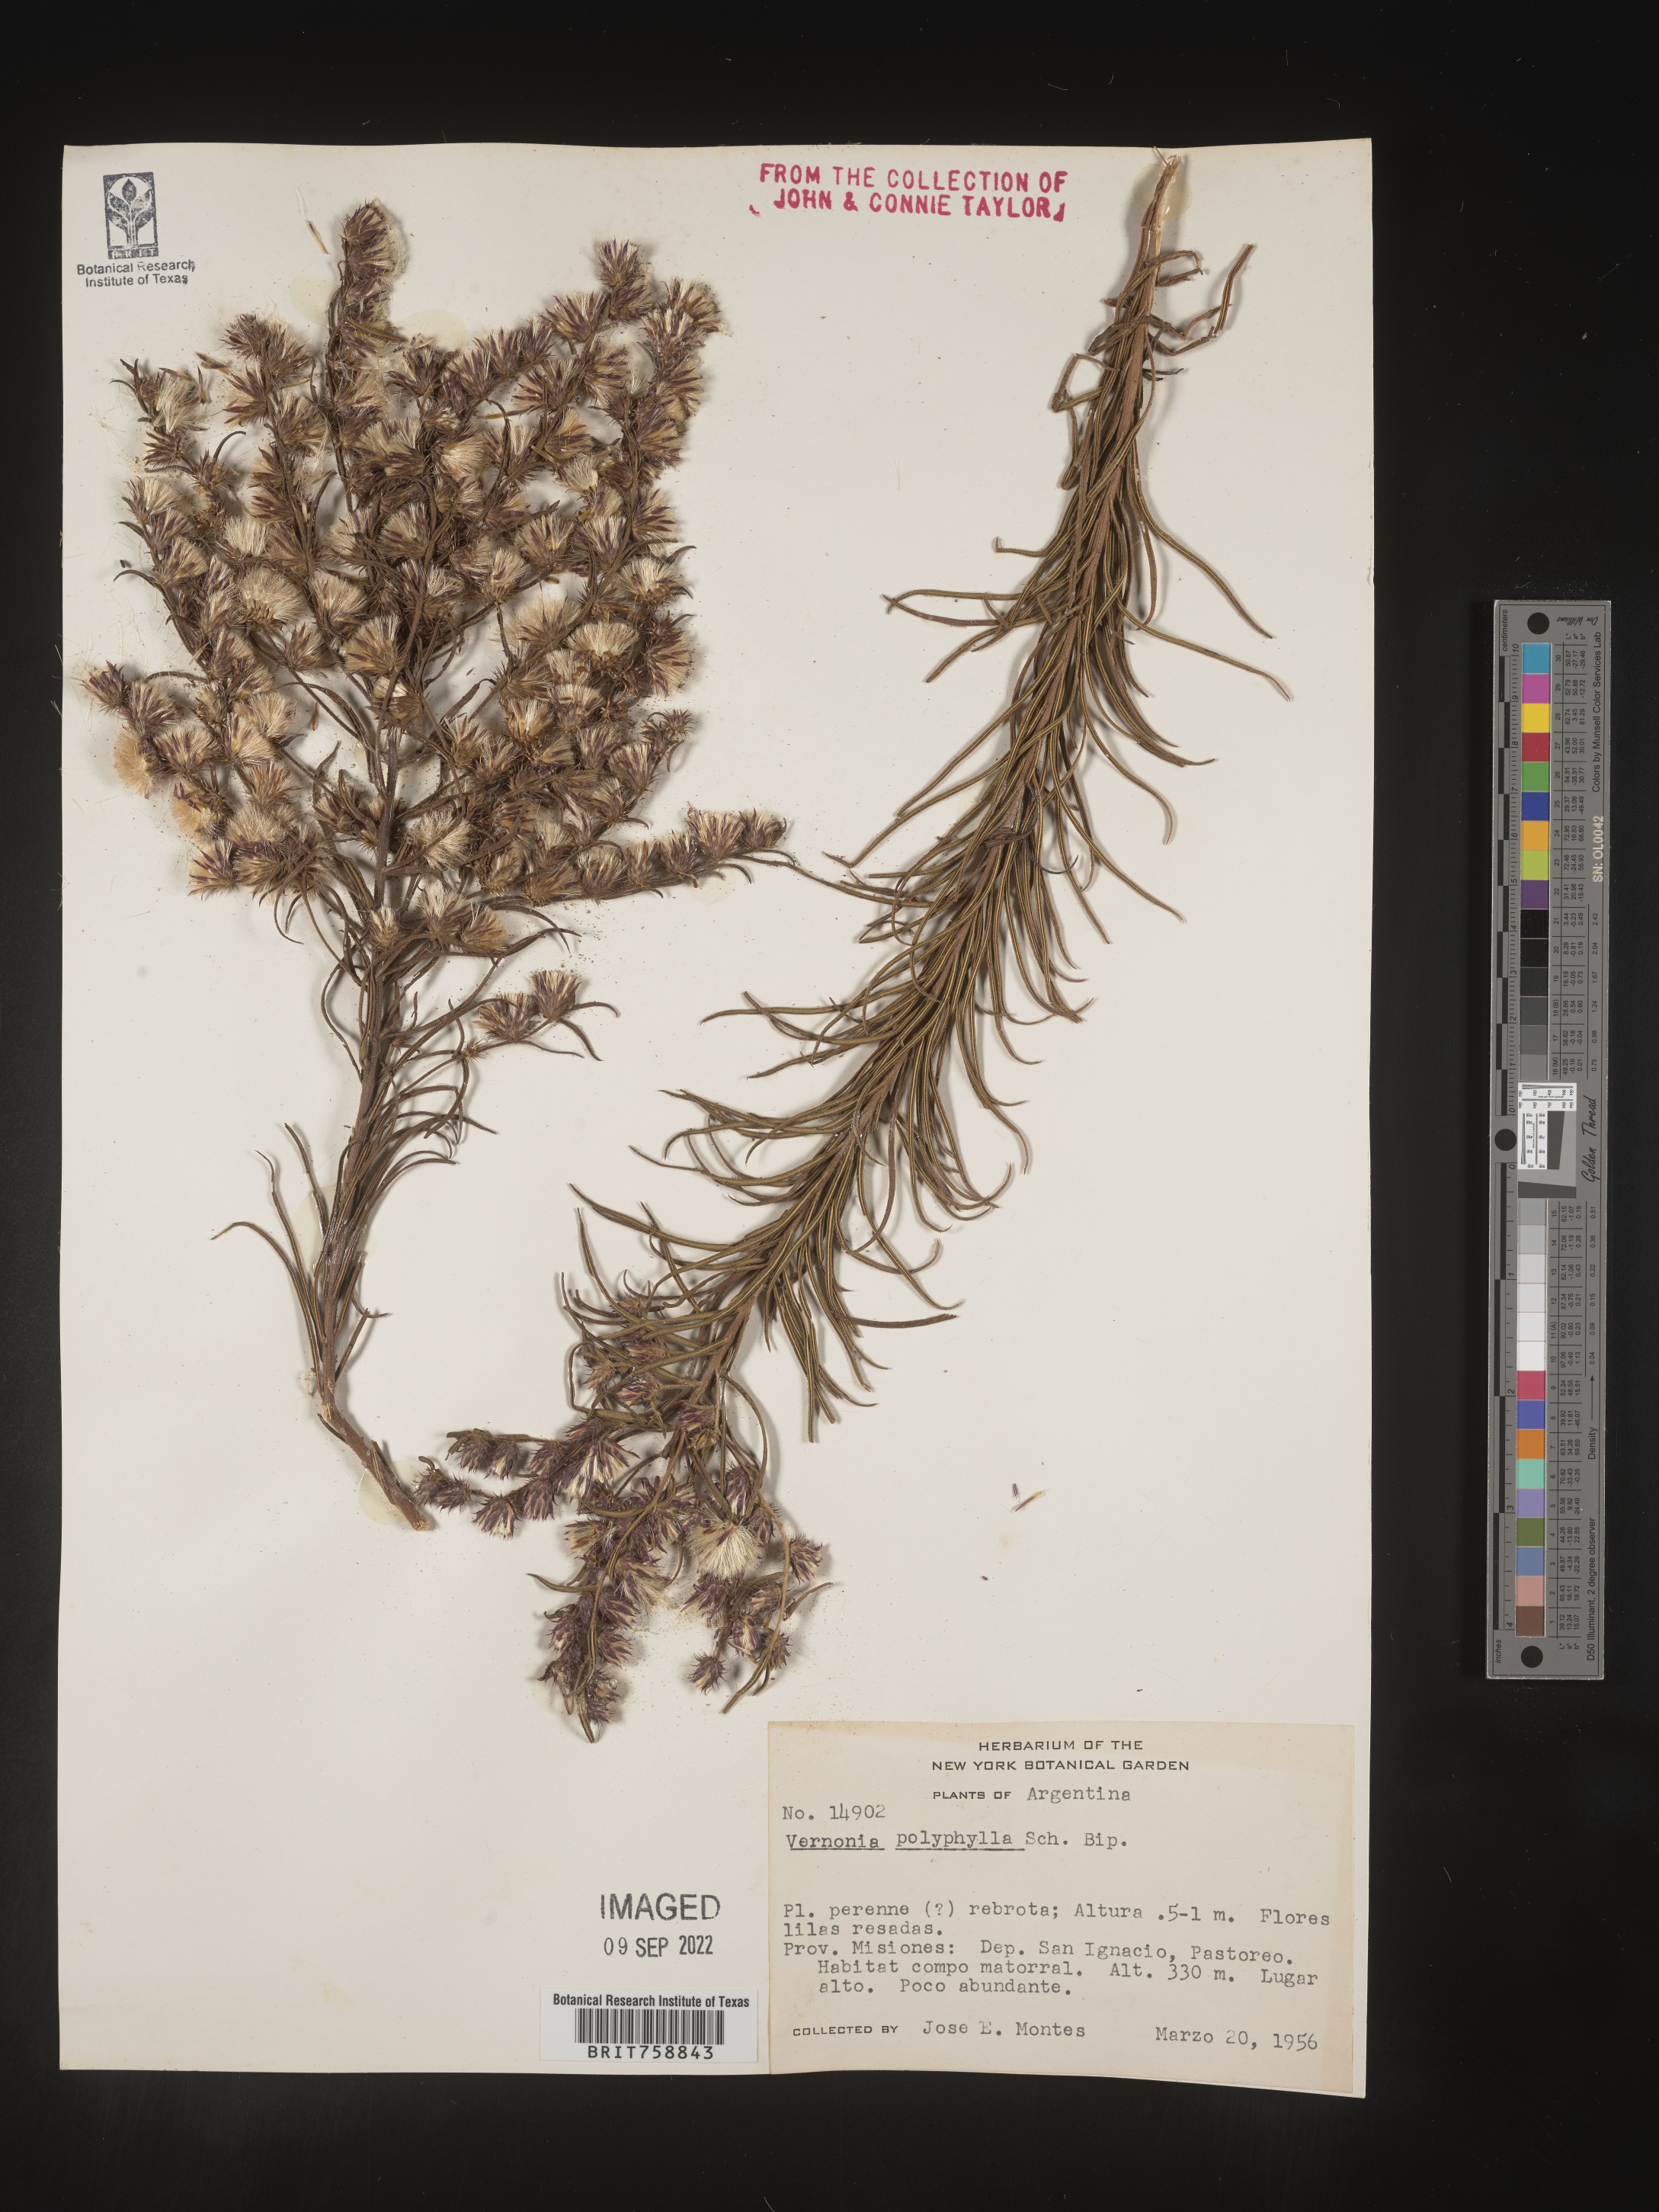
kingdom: Plantae
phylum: Tracheophyta
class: Magnoliopsida
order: Asterales
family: Asteraceae
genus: Vernonia
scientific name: Vernonia
